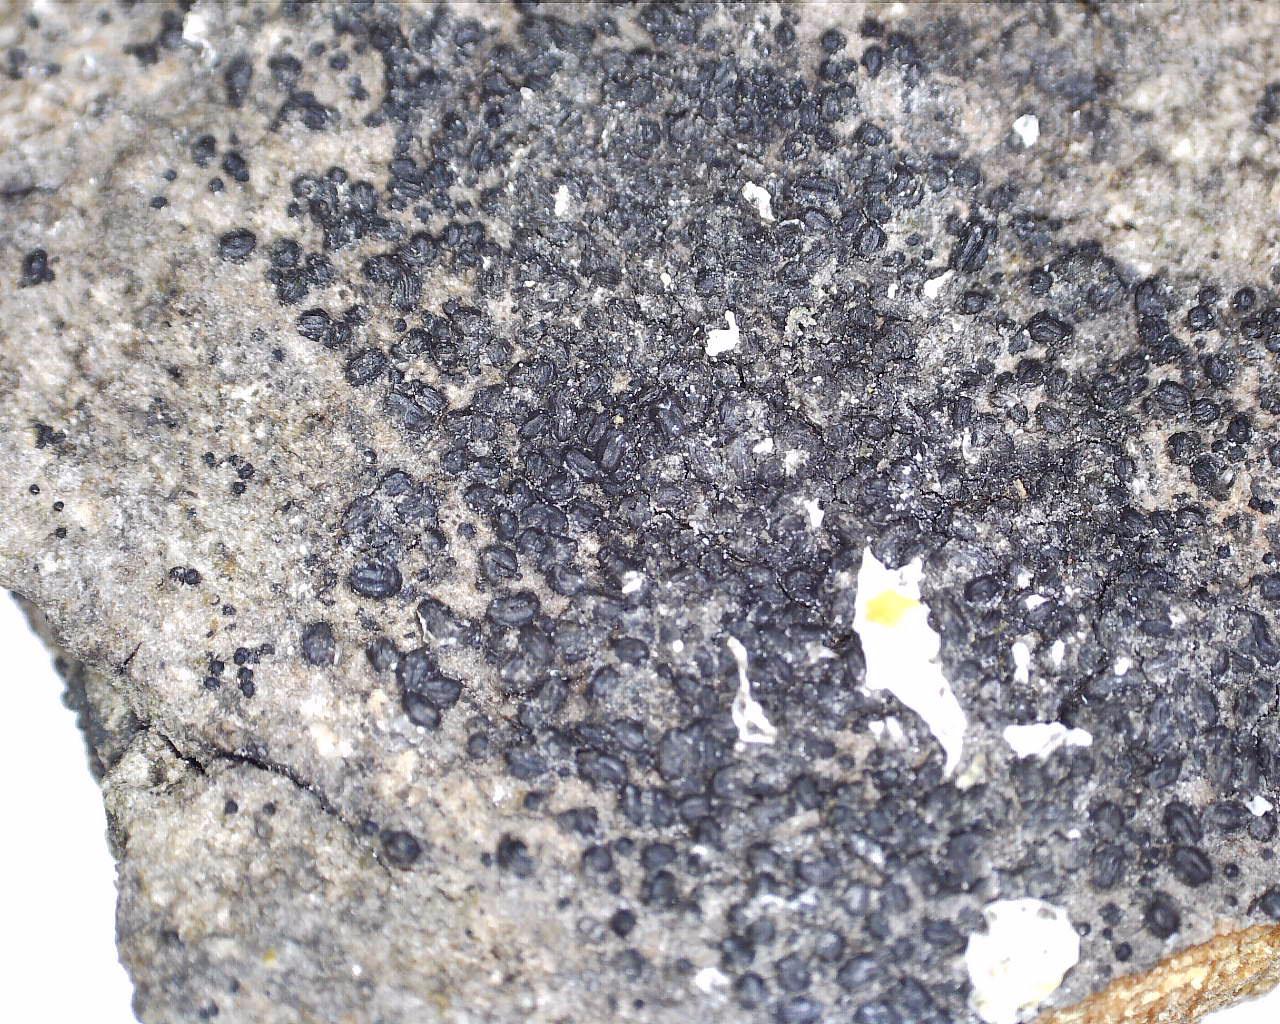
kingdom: Fungi
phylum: Ascomycota
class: Dothideomycetes
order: Hysteriales
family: Hysteriaceae
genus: Hysterium
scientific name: Hysterium acuminatum
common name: almindelig kulmund
